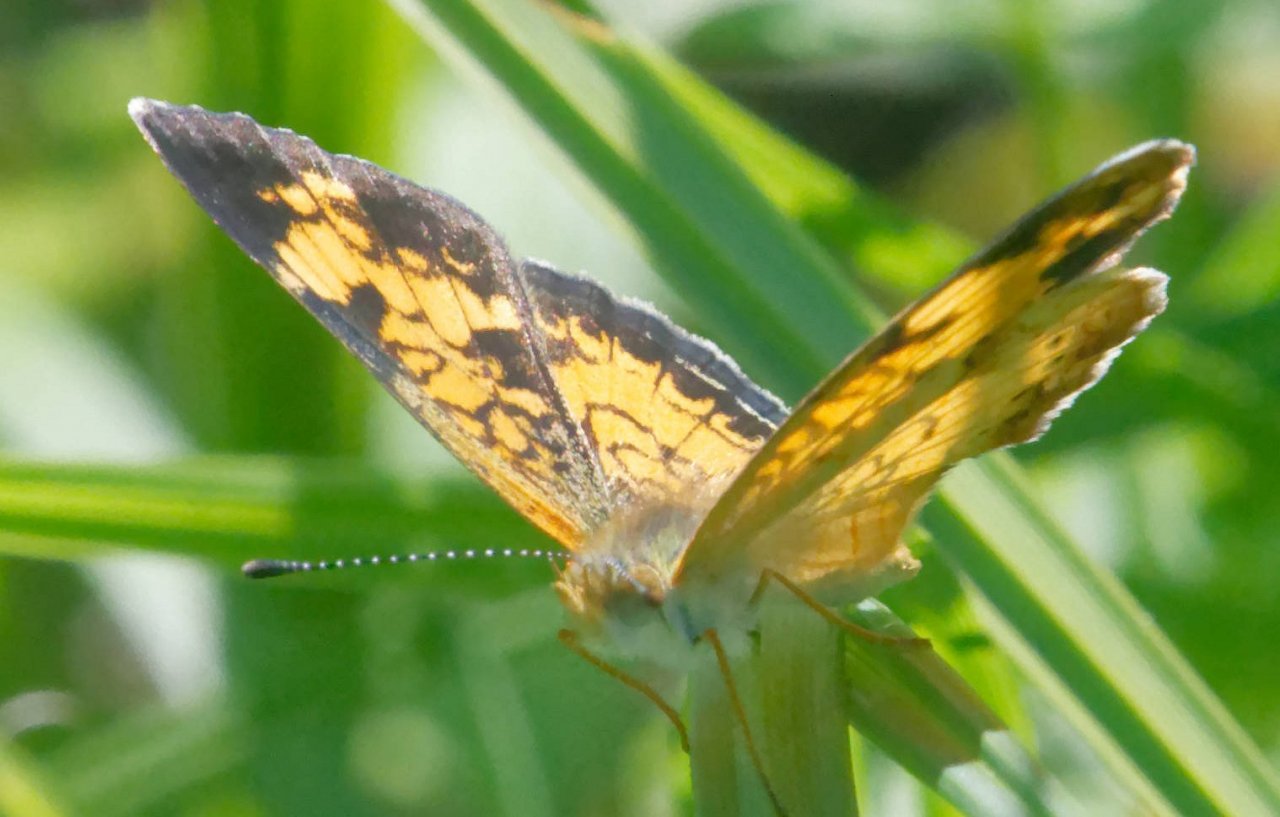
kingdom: Animalia
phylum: Arthropoda
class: Insecta
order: Lepidoptera
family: Nymphalidae
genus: Phyciodes
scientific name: Phyciodes tharos
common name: Pearl Crescent
